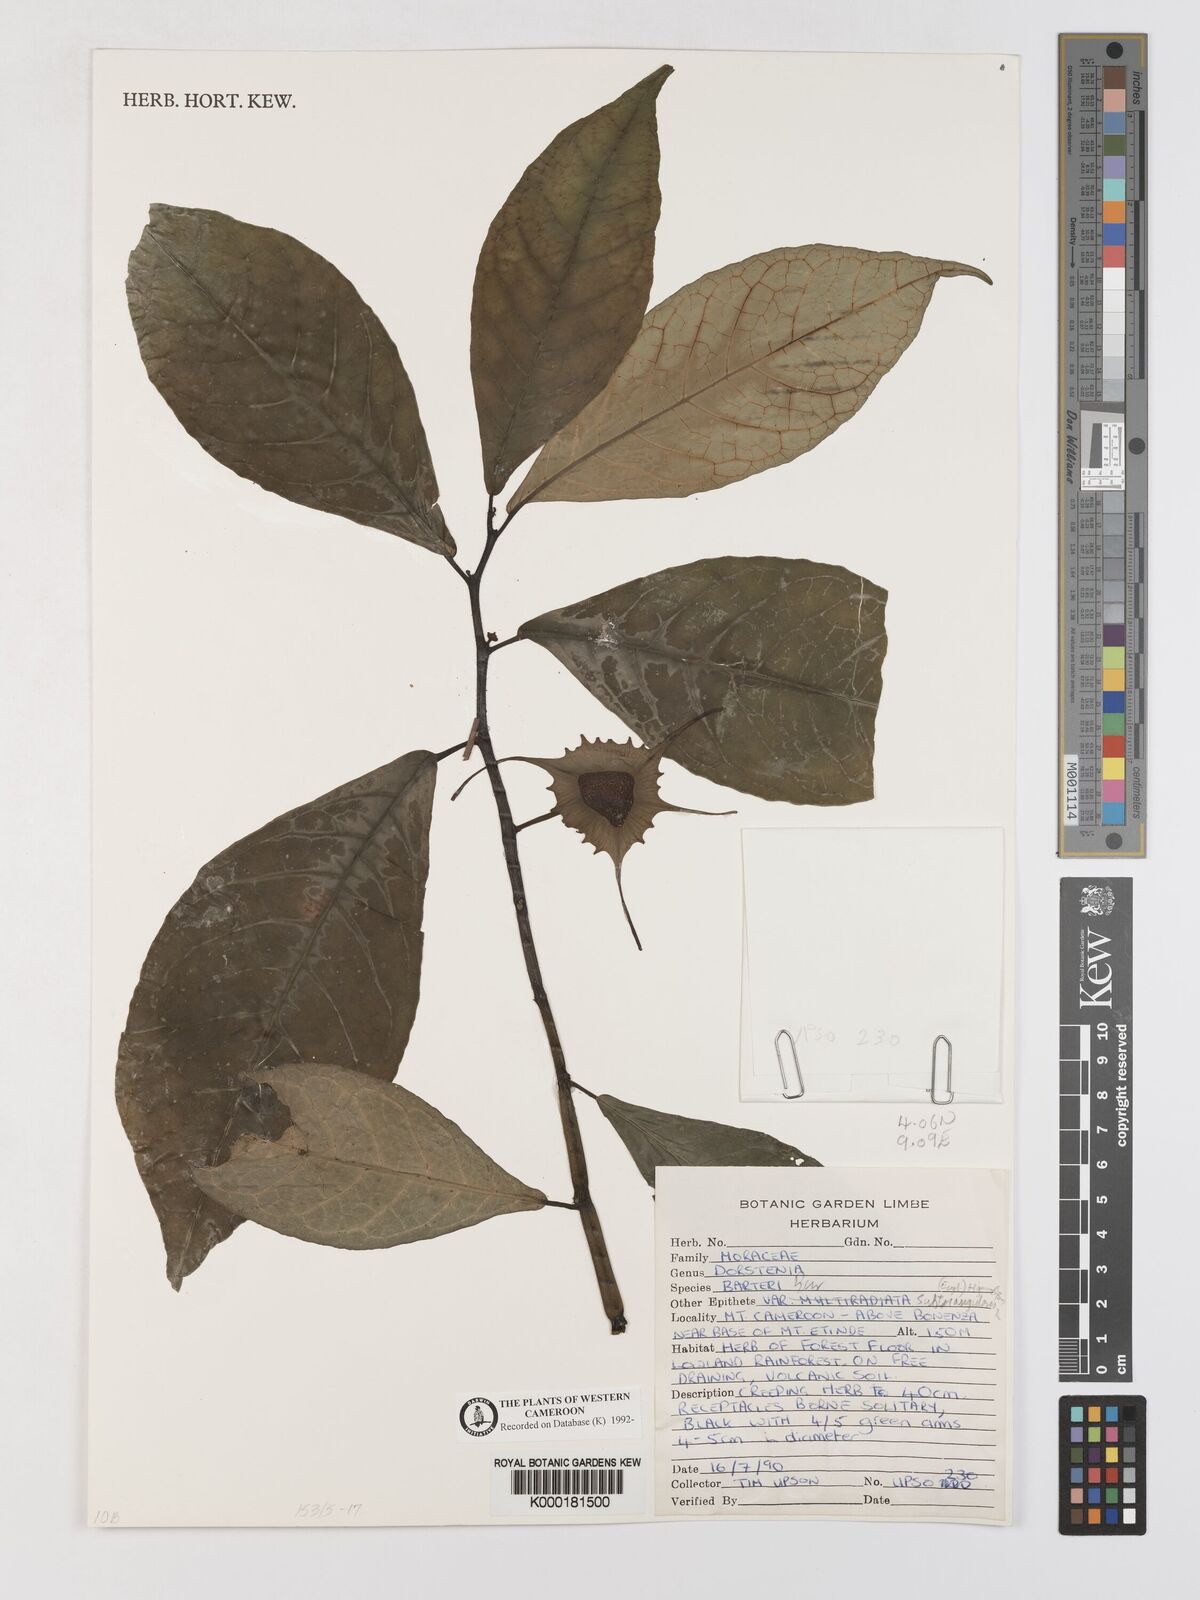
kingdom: Plantae
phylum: Tracheophyta
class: Magnoliopsida
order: Rosales
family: Moraceae
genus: Dorstenia
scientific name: Dorstenia barteri
